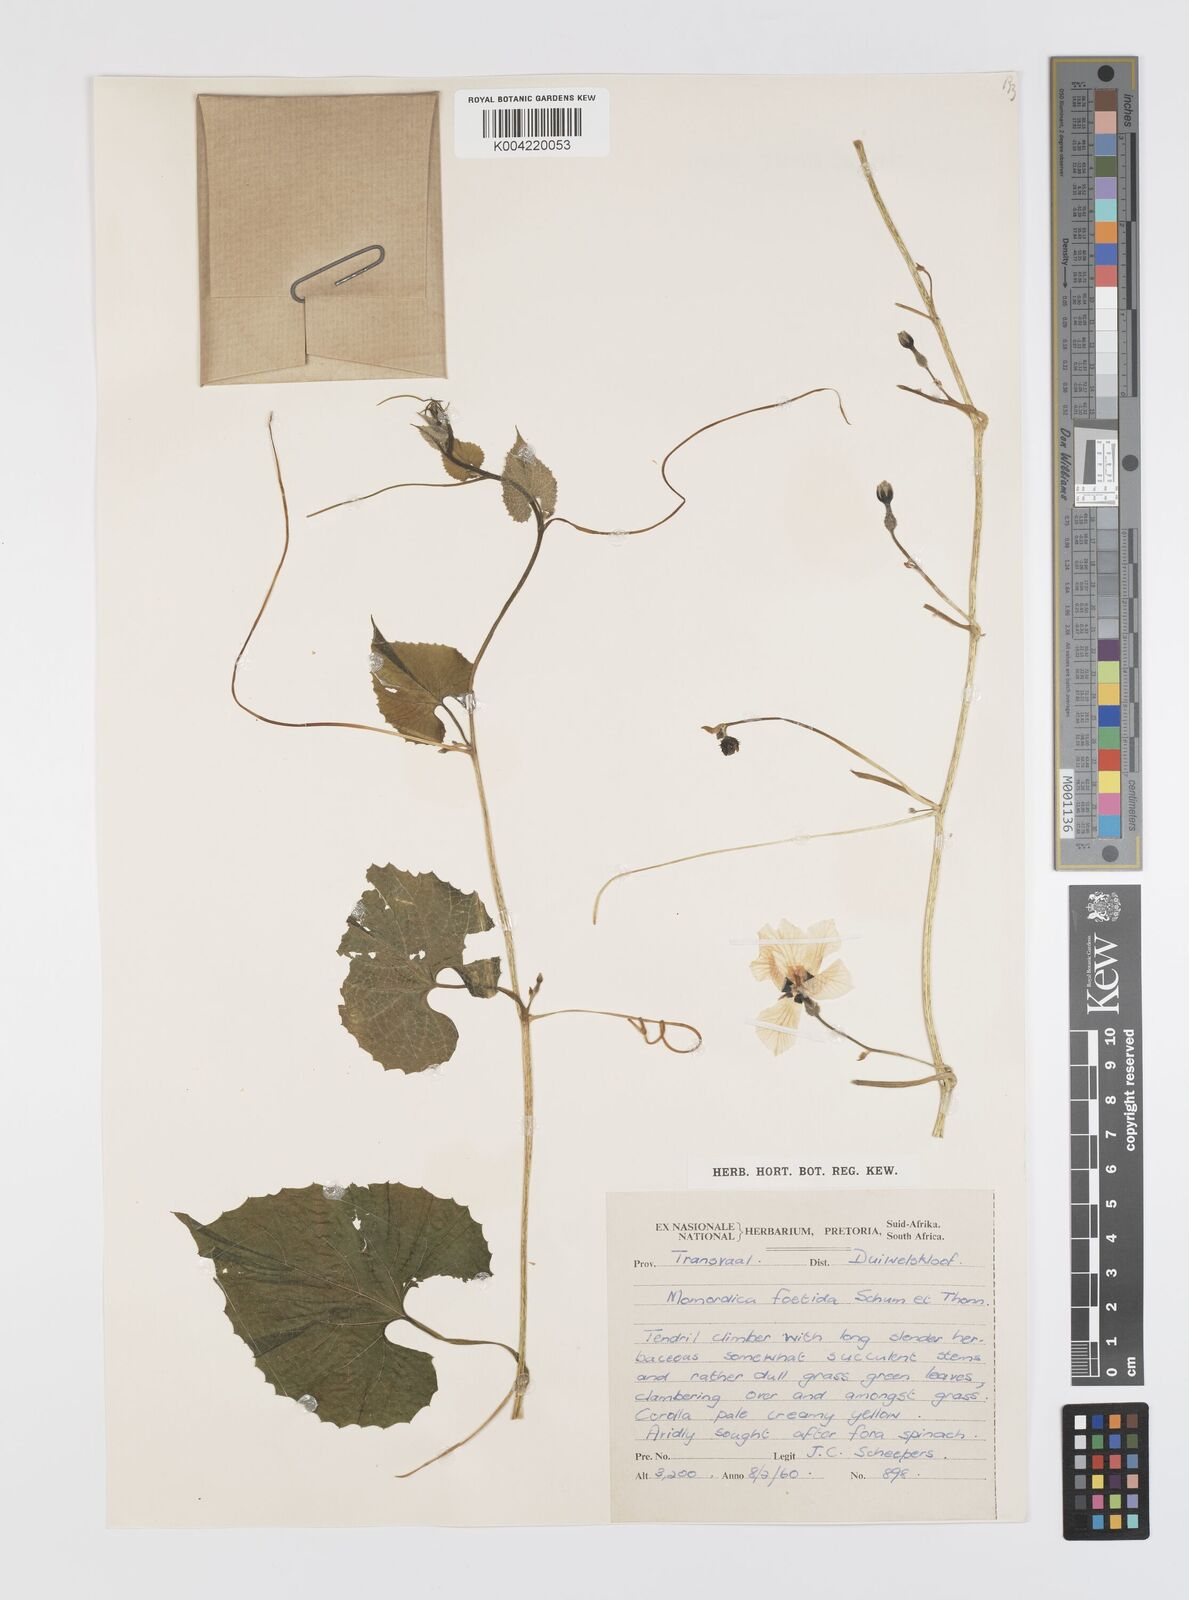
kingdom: Plantae
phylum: Tracheophyta
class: Magnoliopsida
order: Cucurbitales
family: Cucurbitaceae
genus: Momordica
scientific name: Momordica foetida
